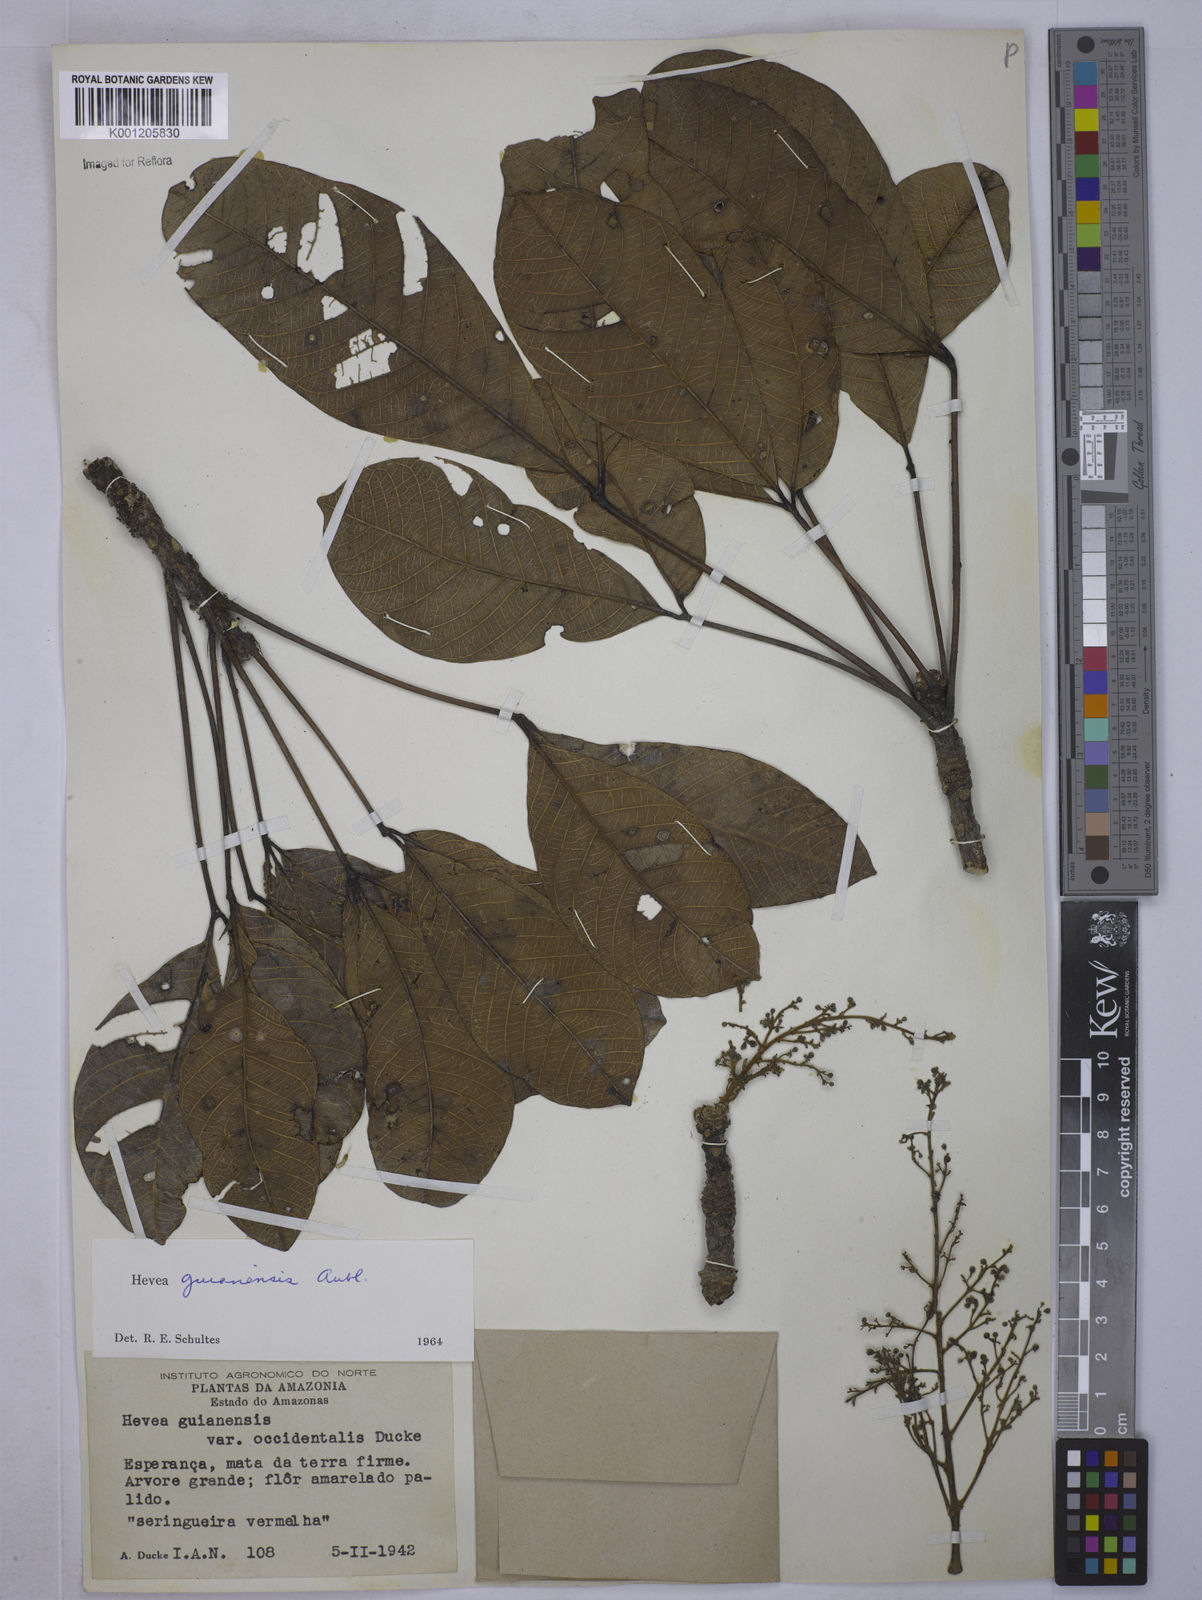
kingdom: Plantae
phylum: Tracheophyta
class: Magnoliopsida
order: Malpighiales
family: Euphorbiaceae
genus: Hevea
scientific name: Hevea guianensis
